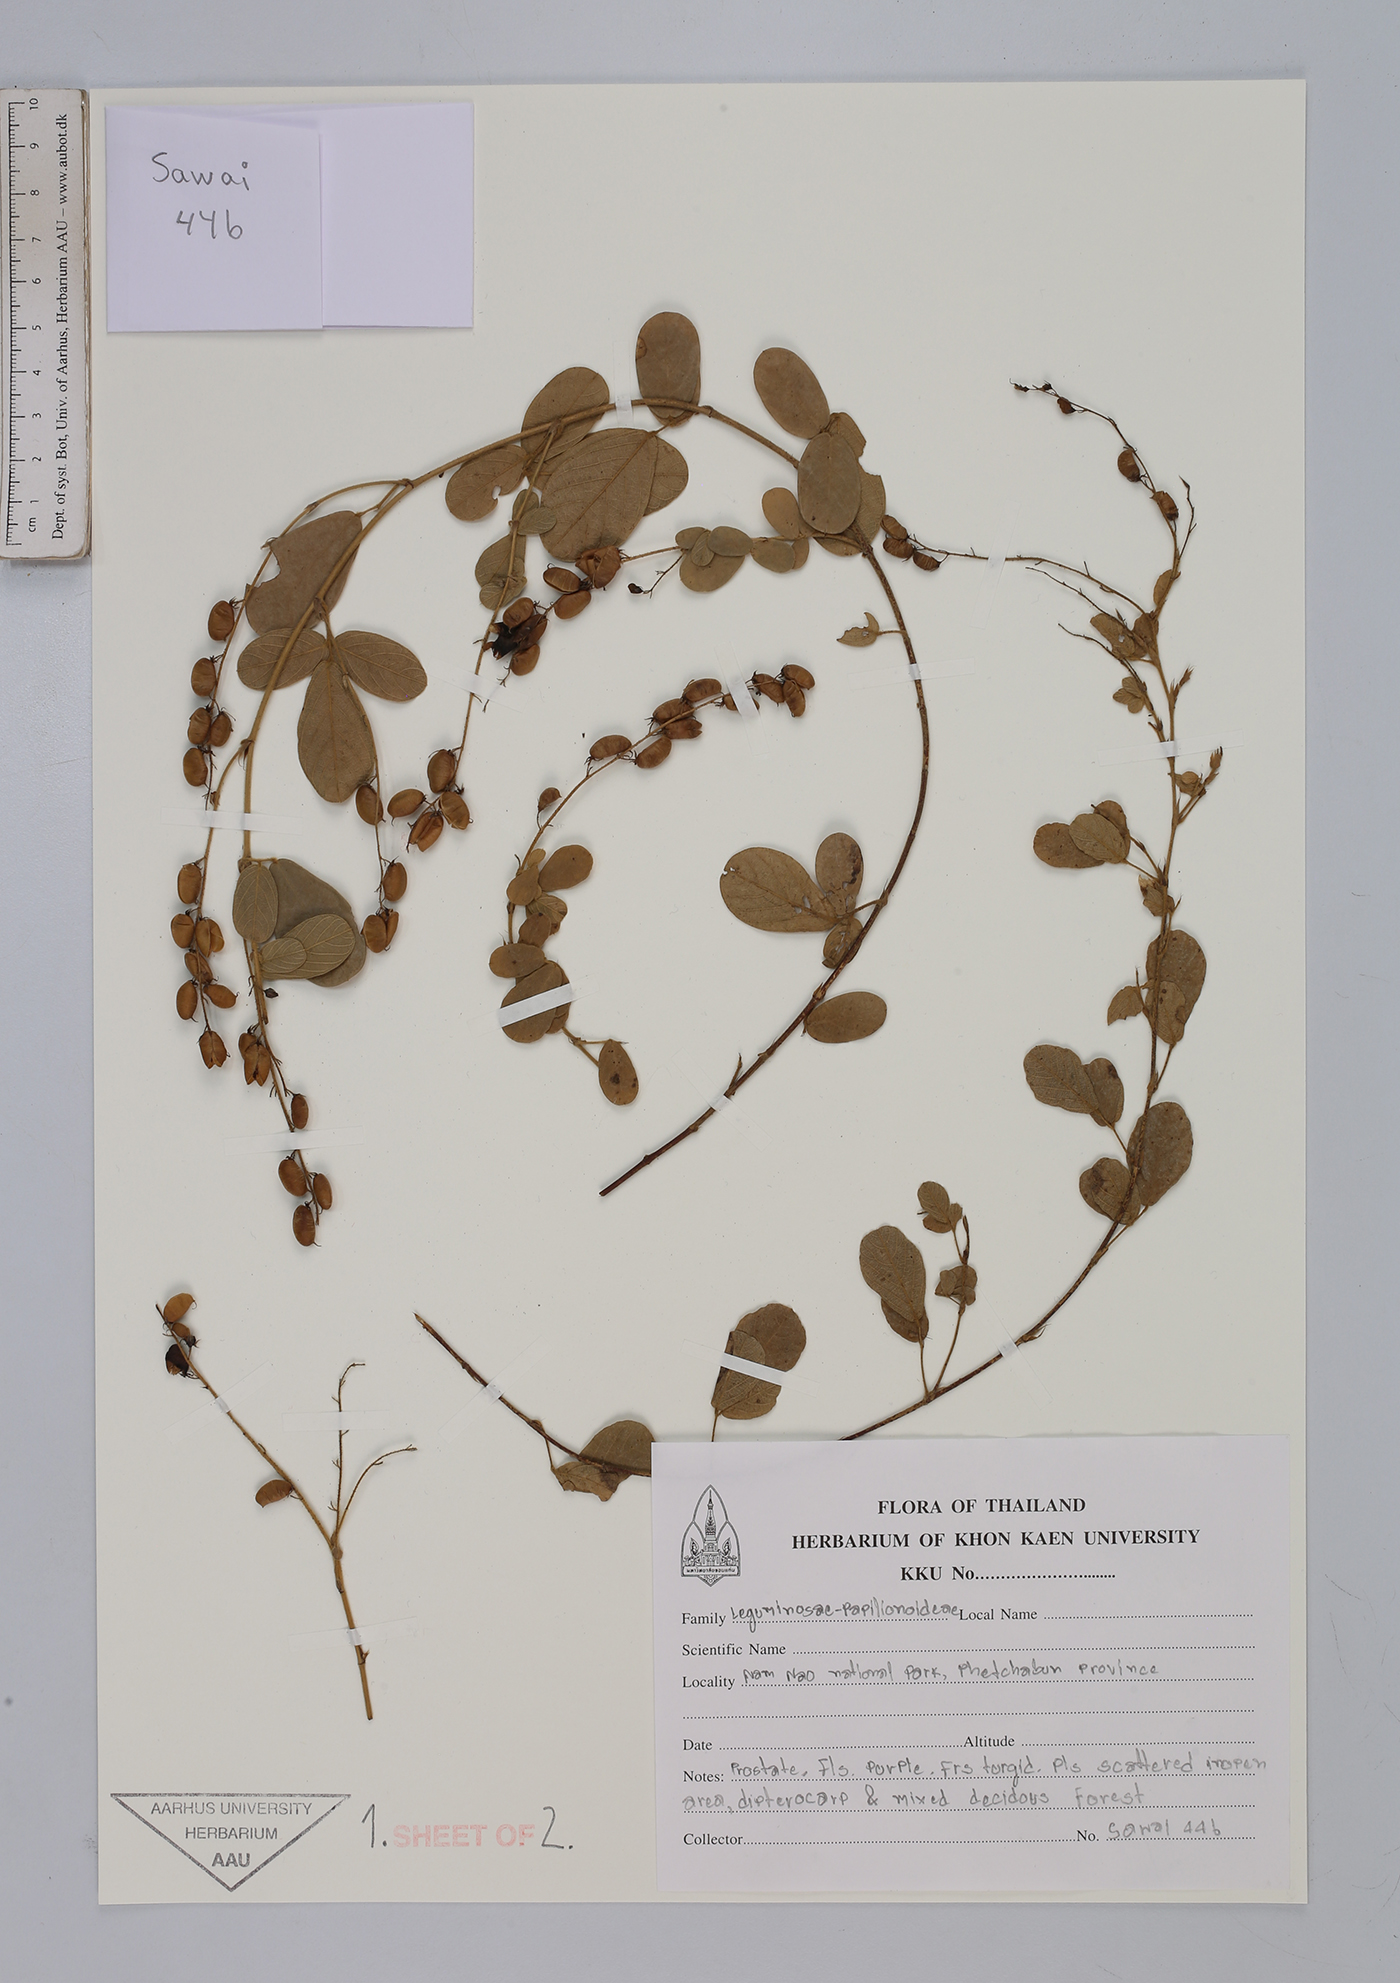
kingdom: Plantae
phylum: Tracheophyta
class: Magnoliopsida
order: Fabales
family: Fabaceae
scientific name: Fabaceae
